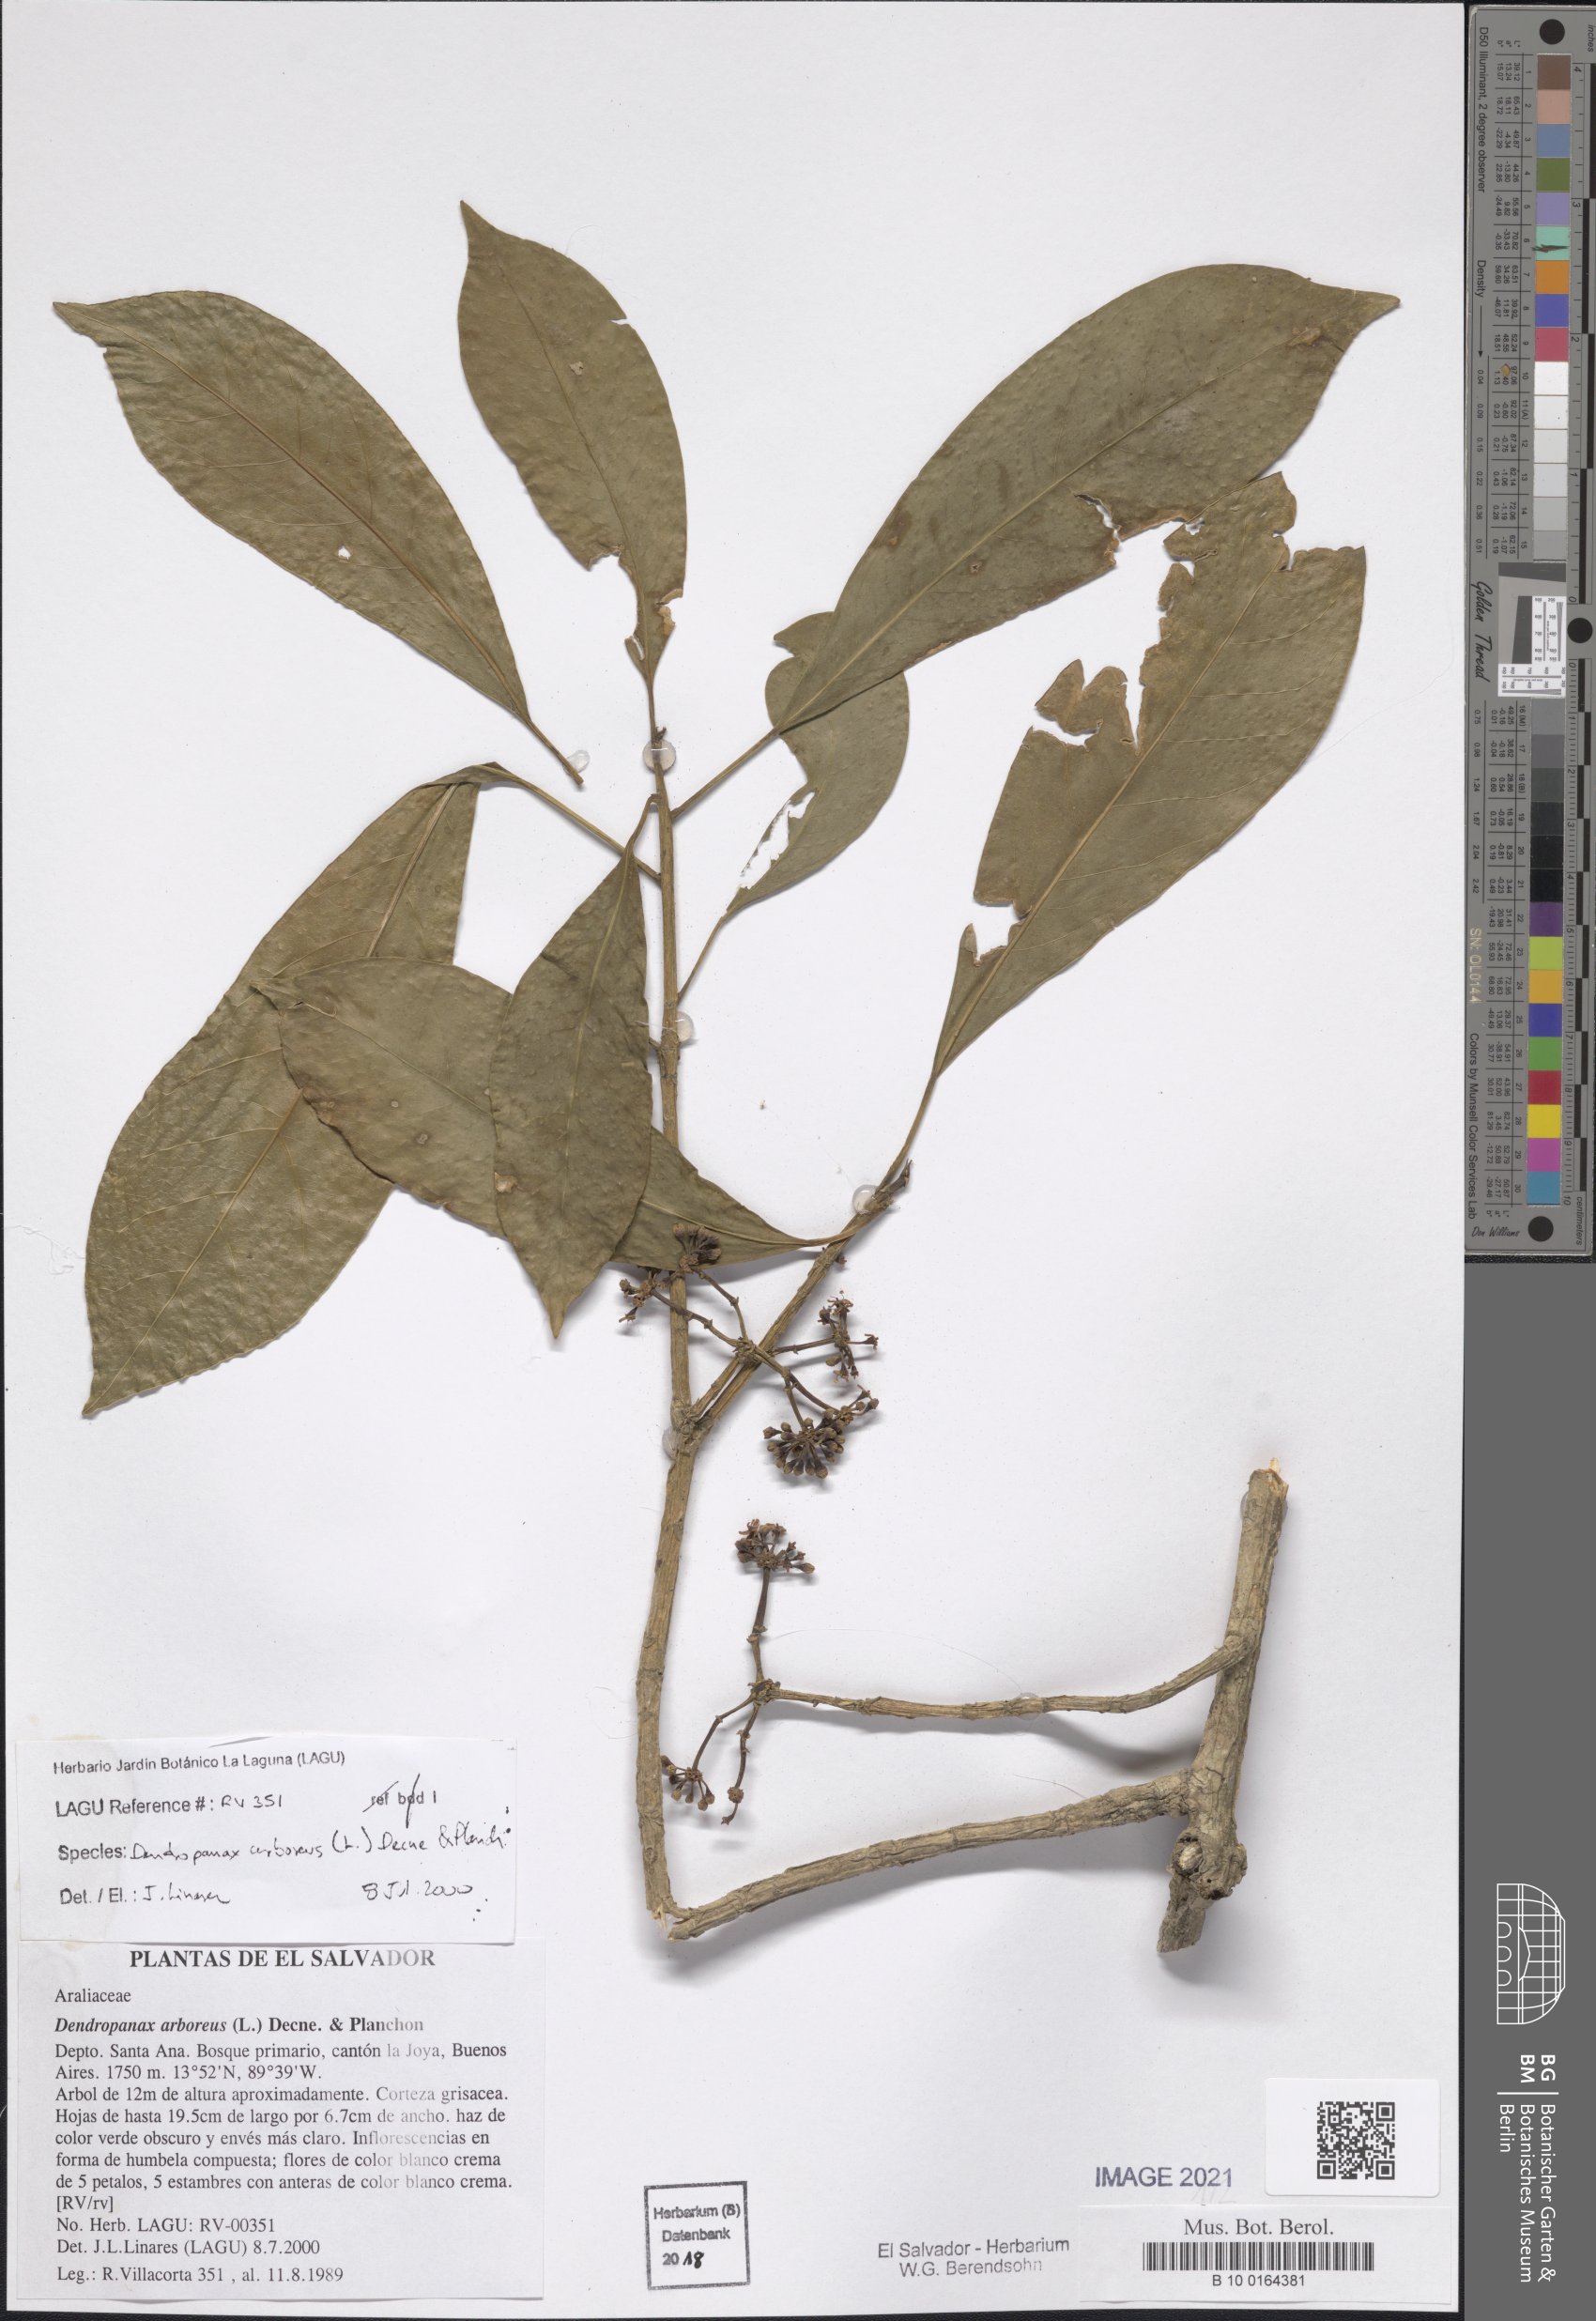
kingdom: Plantae
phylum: Tracheophyta
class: Magnoliopsida
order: Apiales
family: Araliaceae
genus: Dendropanax
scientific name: Dendropanax arboreus
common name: Potato-wood
